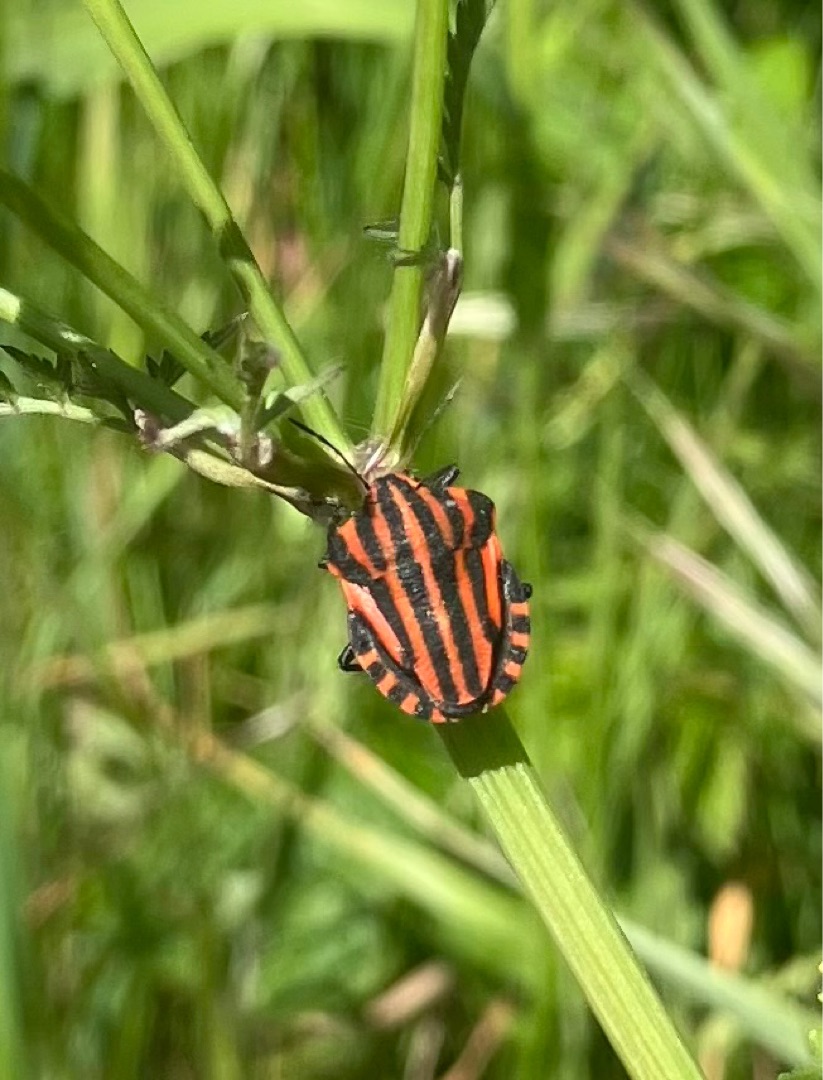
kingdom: Animalia
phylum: Arthropoda
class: Insecta
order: Hemiptera
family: Pentatomidae
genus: Graphosoma
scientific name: Graphosoma italicum
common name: Stribetæge
